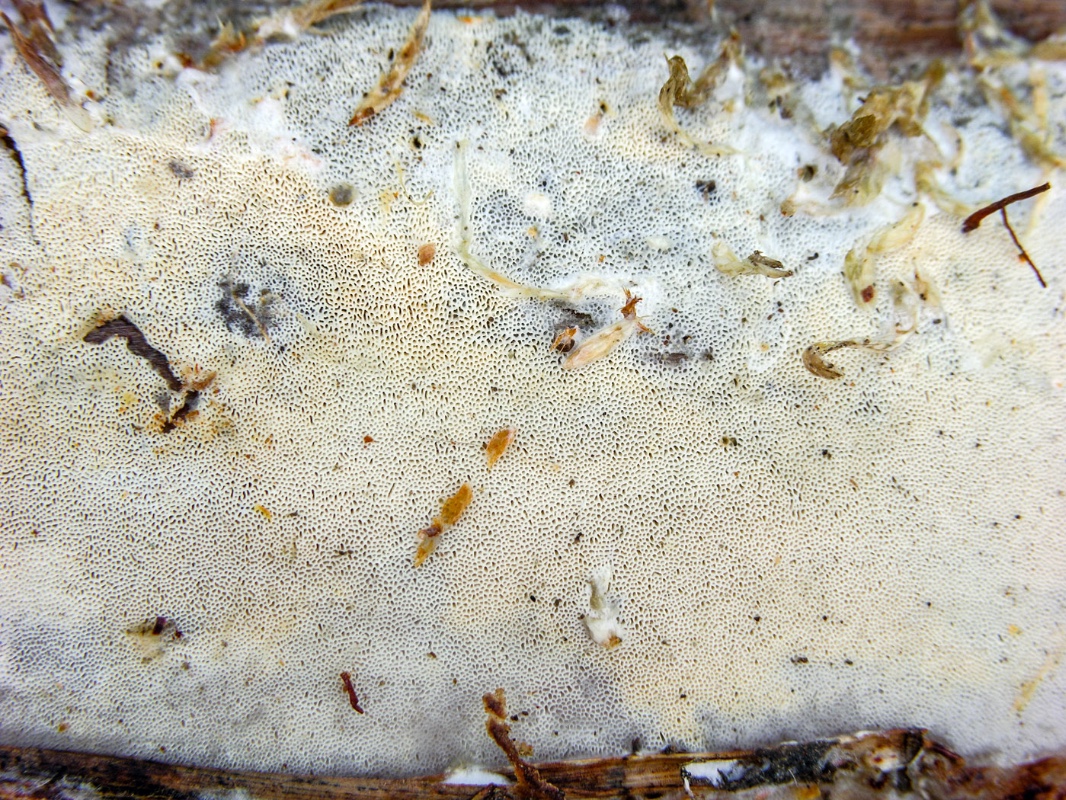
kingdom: Fungi
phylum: Basidiomycota
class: Agaricomycetes
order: Hymenochaetales
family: Rickenellaceae
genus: Sidera
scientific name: Sidera vulgaris
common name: fin flødeporesvamp
